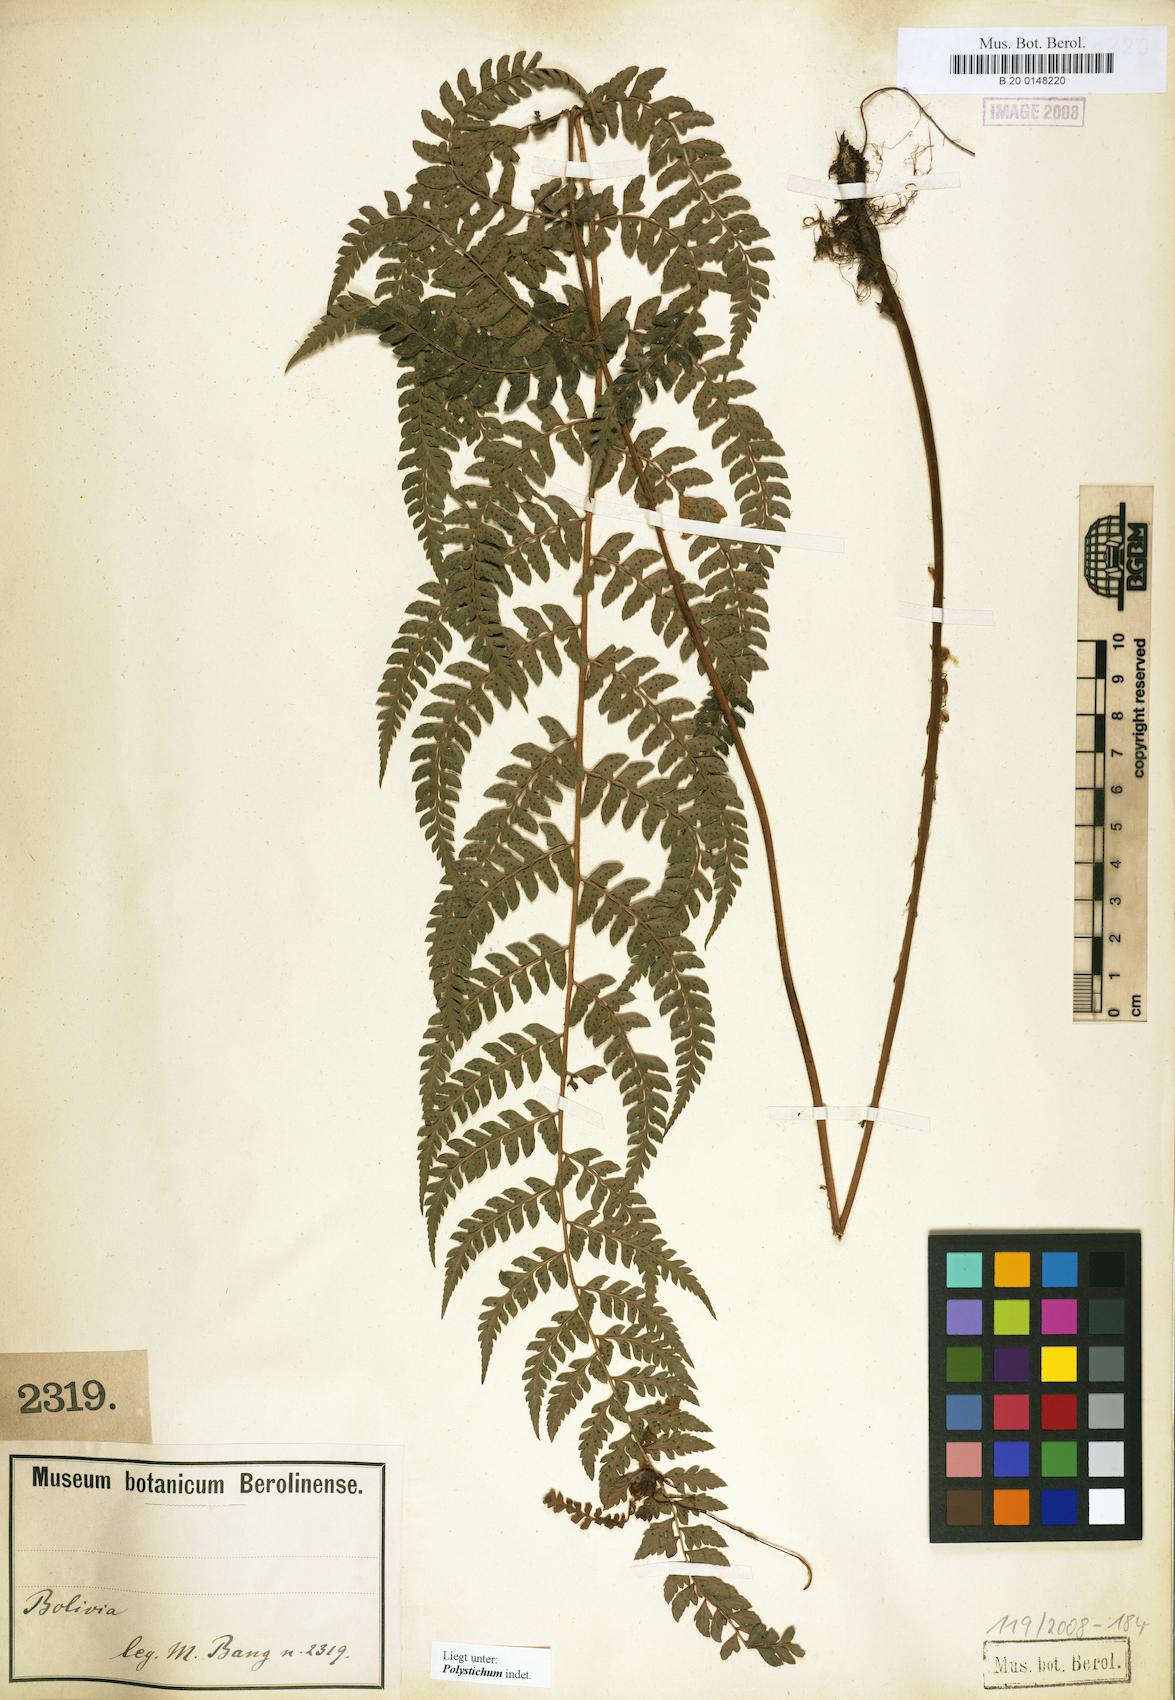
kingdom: Plantae
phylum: Tracheophyta
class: Polypodiopsida
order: Polypodiales
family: Dryopteridaceae
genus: Polystichum
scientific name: Polystichum
